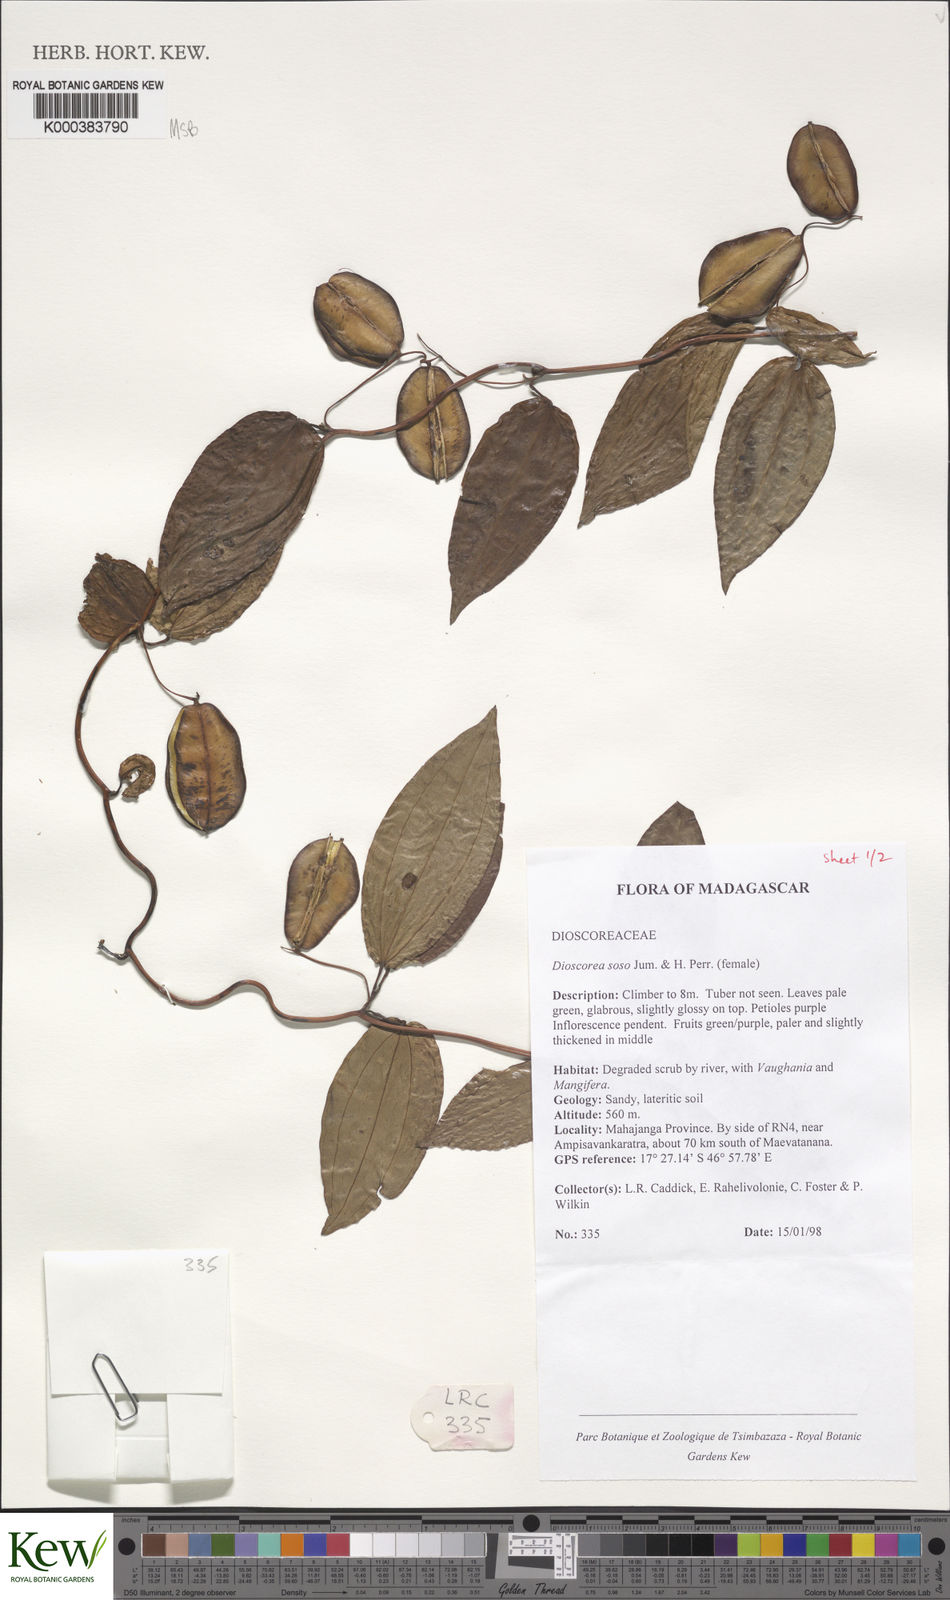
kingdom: Plantae
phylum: Tracheophyta
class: Liliopsida
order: Dioscoreales
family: Dioscoreaceae
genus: Dioscorea
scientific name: Dioscorea
